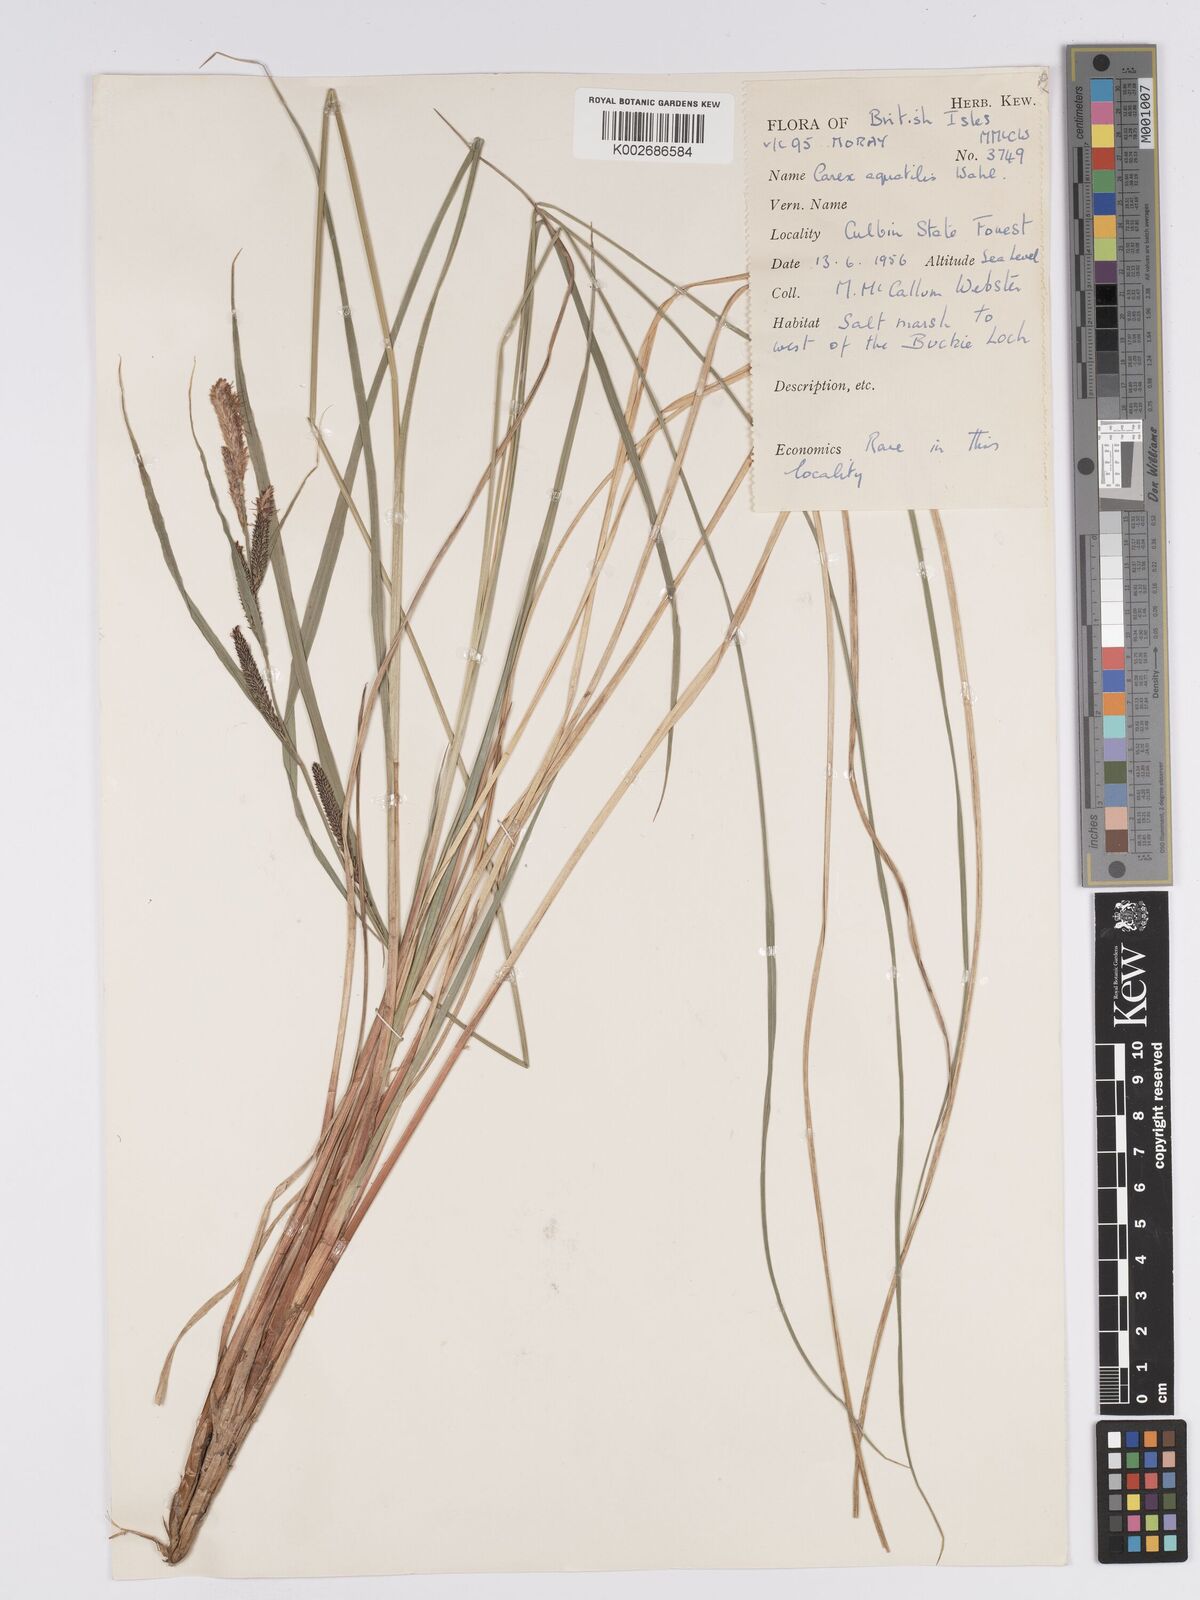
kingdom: Plantae
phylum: Tracheophyta
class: Liliopsida
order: Poales
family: Cyperaceae
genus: Carex
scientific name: Carex aquatilis
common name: Water sedge
